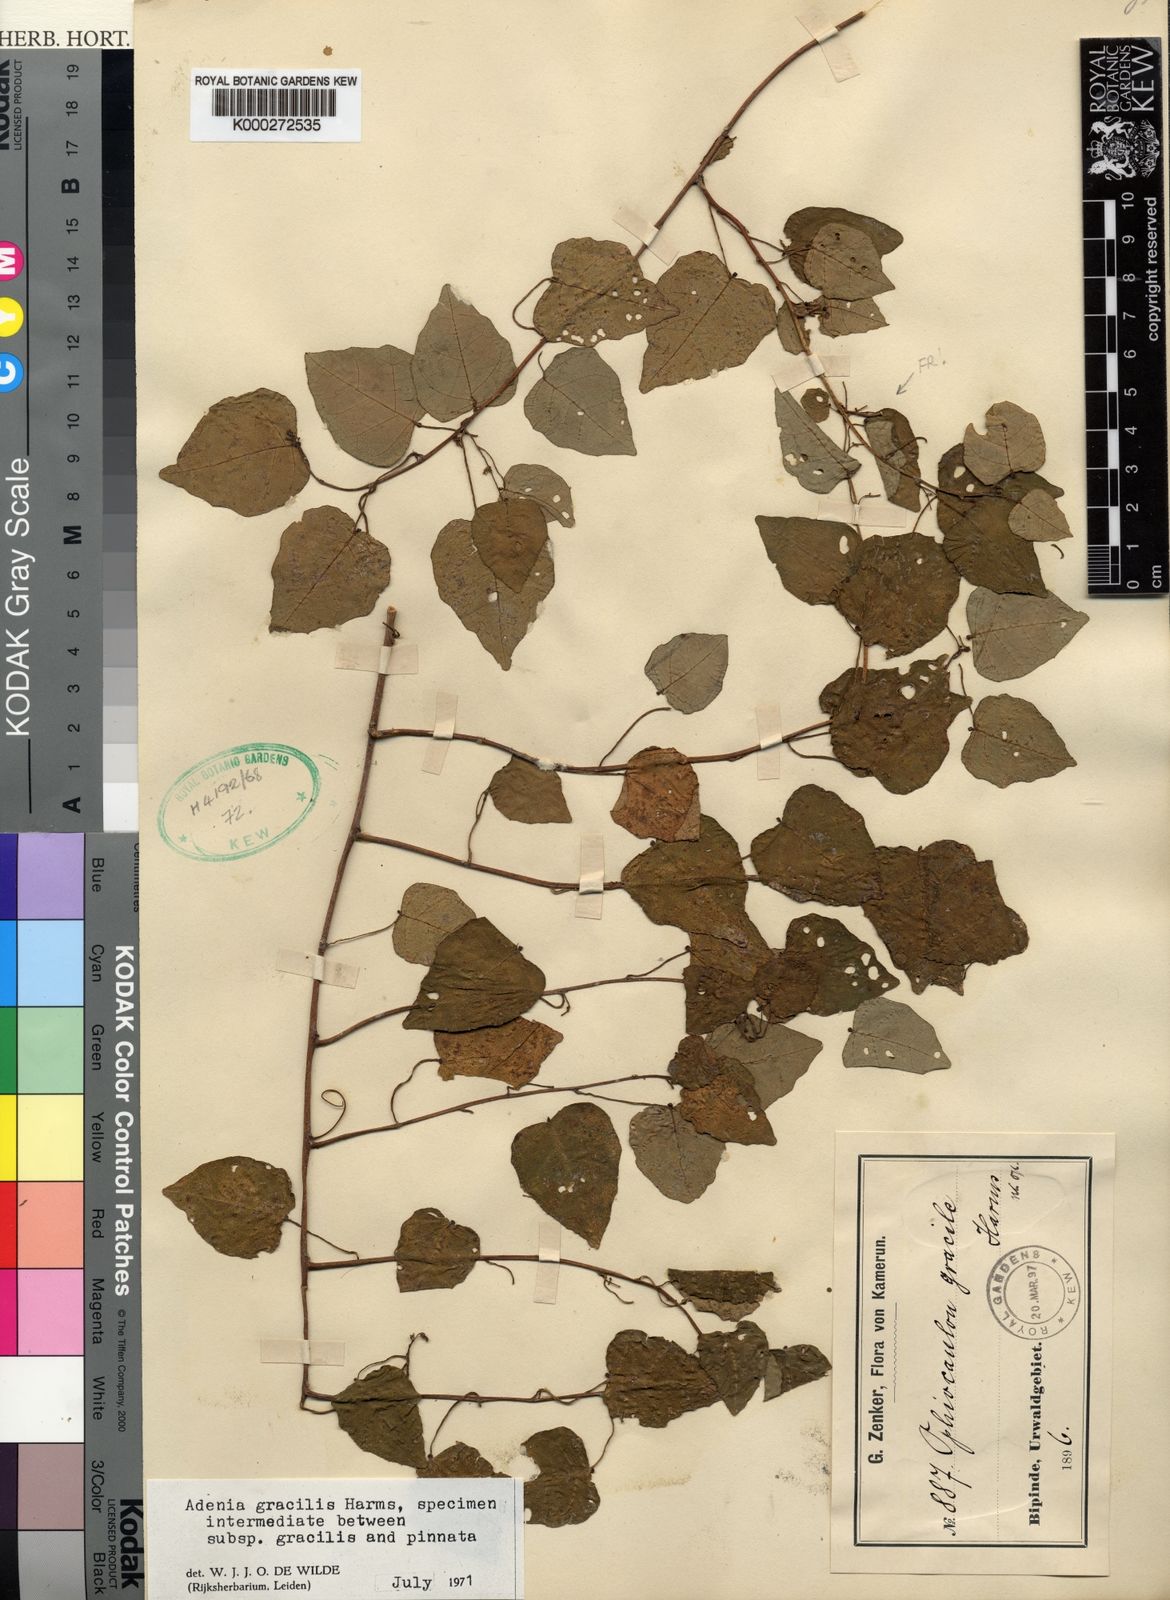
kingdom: Plantae
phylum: Tracheophyta
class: Magnoliopsida
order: Malpighiales
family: Passifloraceae
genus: Adenia
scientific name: Adenia cissampeloides
